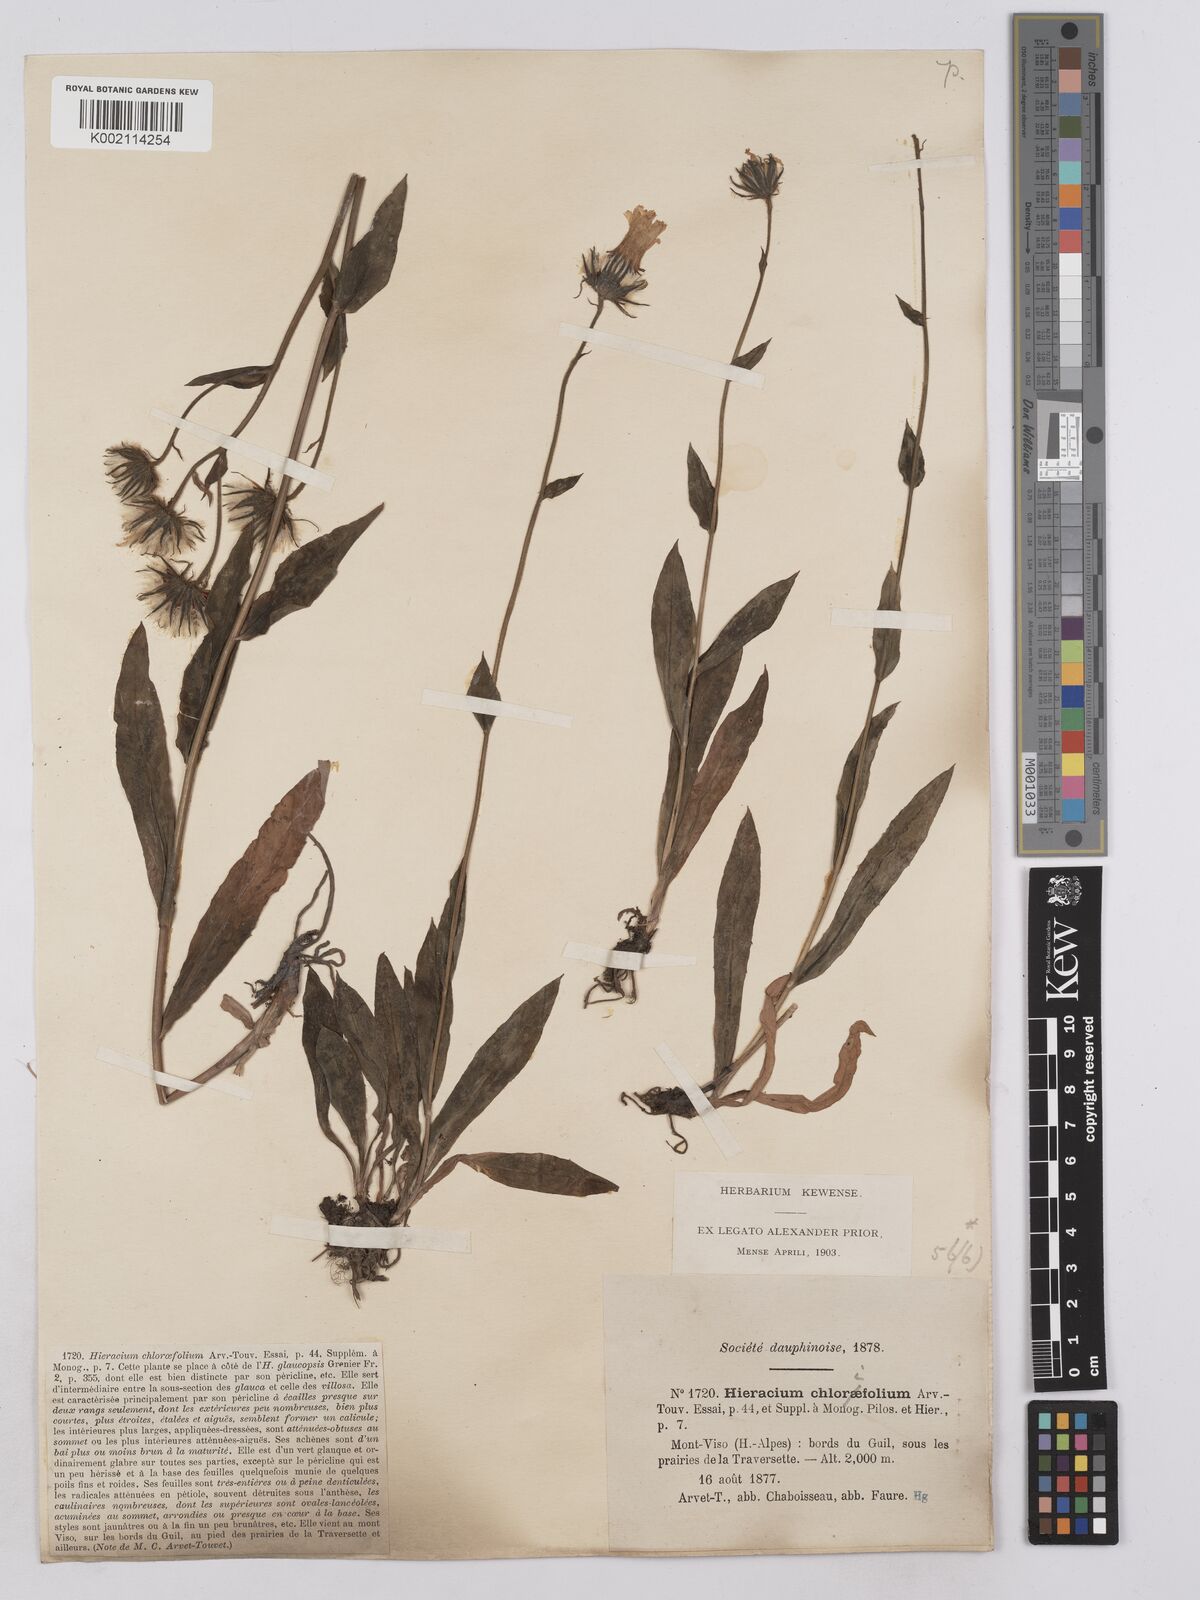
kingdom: Plantae
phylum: Tracheophyta
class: Magnoliopsida
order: Asterales
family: Asteraceae
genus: Hieracium
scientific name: Hieracium chlorifolium
